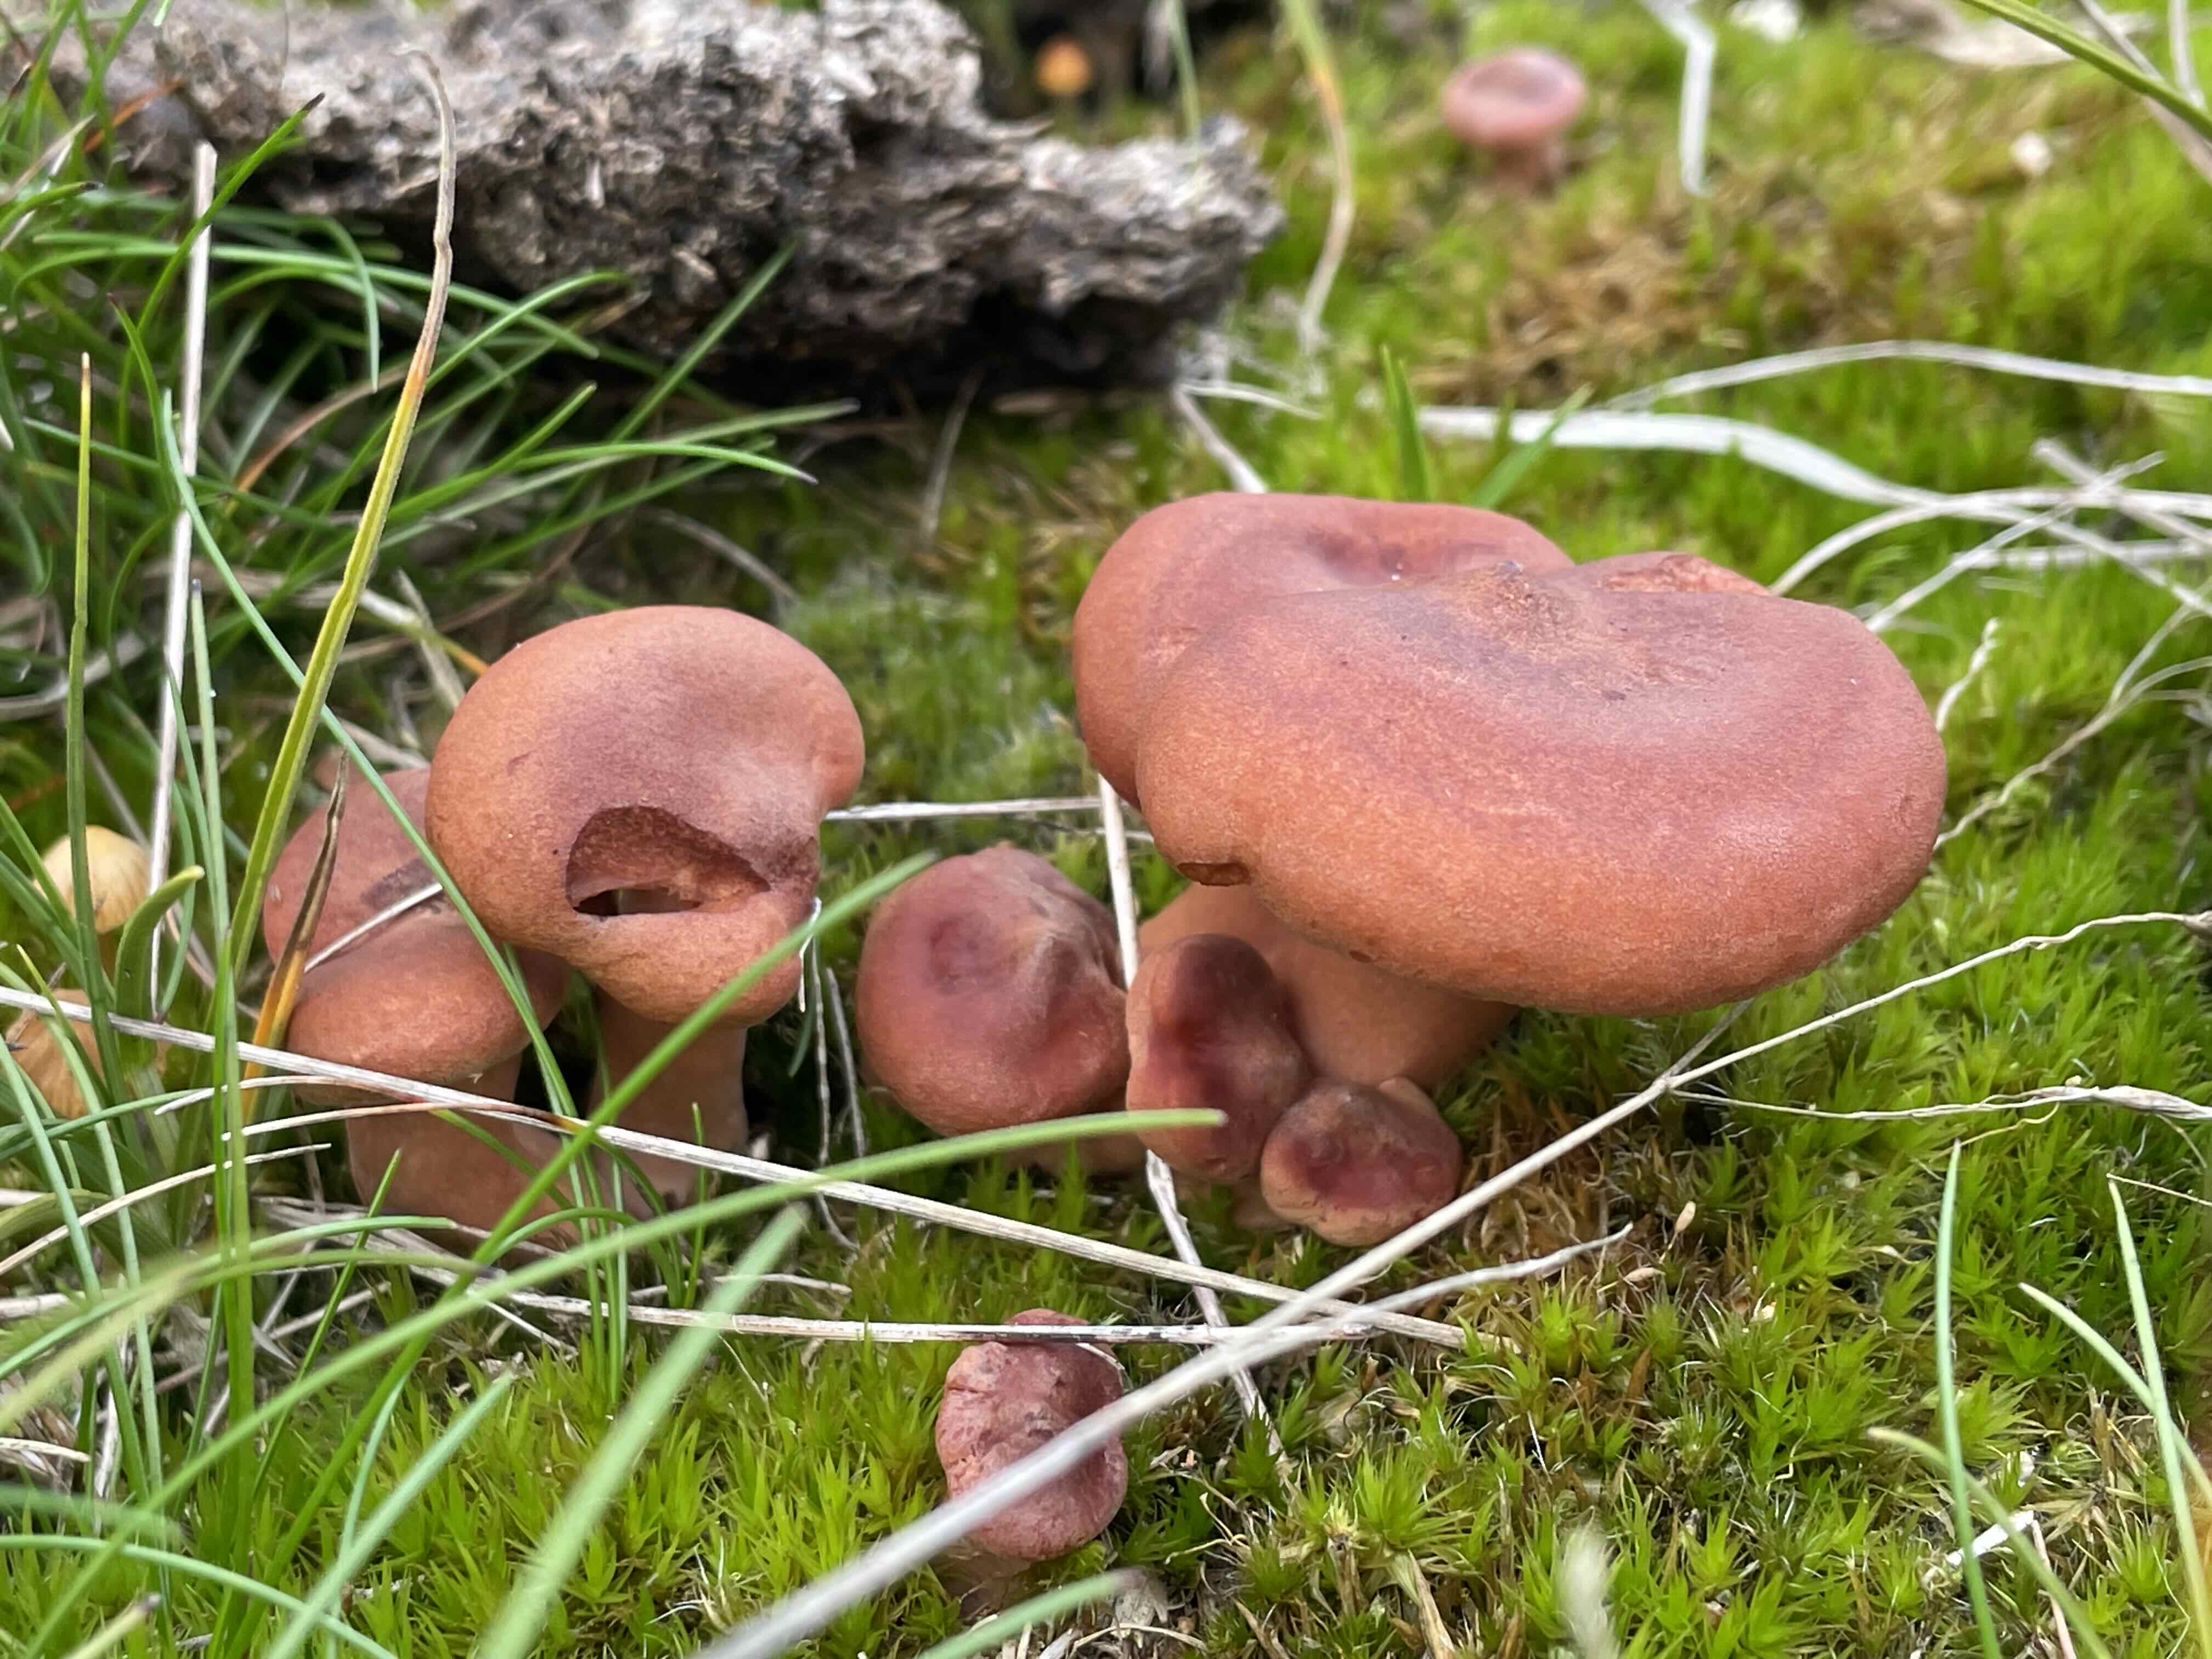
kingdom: Fungi
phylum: Basidiomycota
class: Agaricomycetes
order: Russulales
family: Russulaceae
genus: Lactarius
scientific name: Lactarius rufus
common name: rødbrun mælkehat
